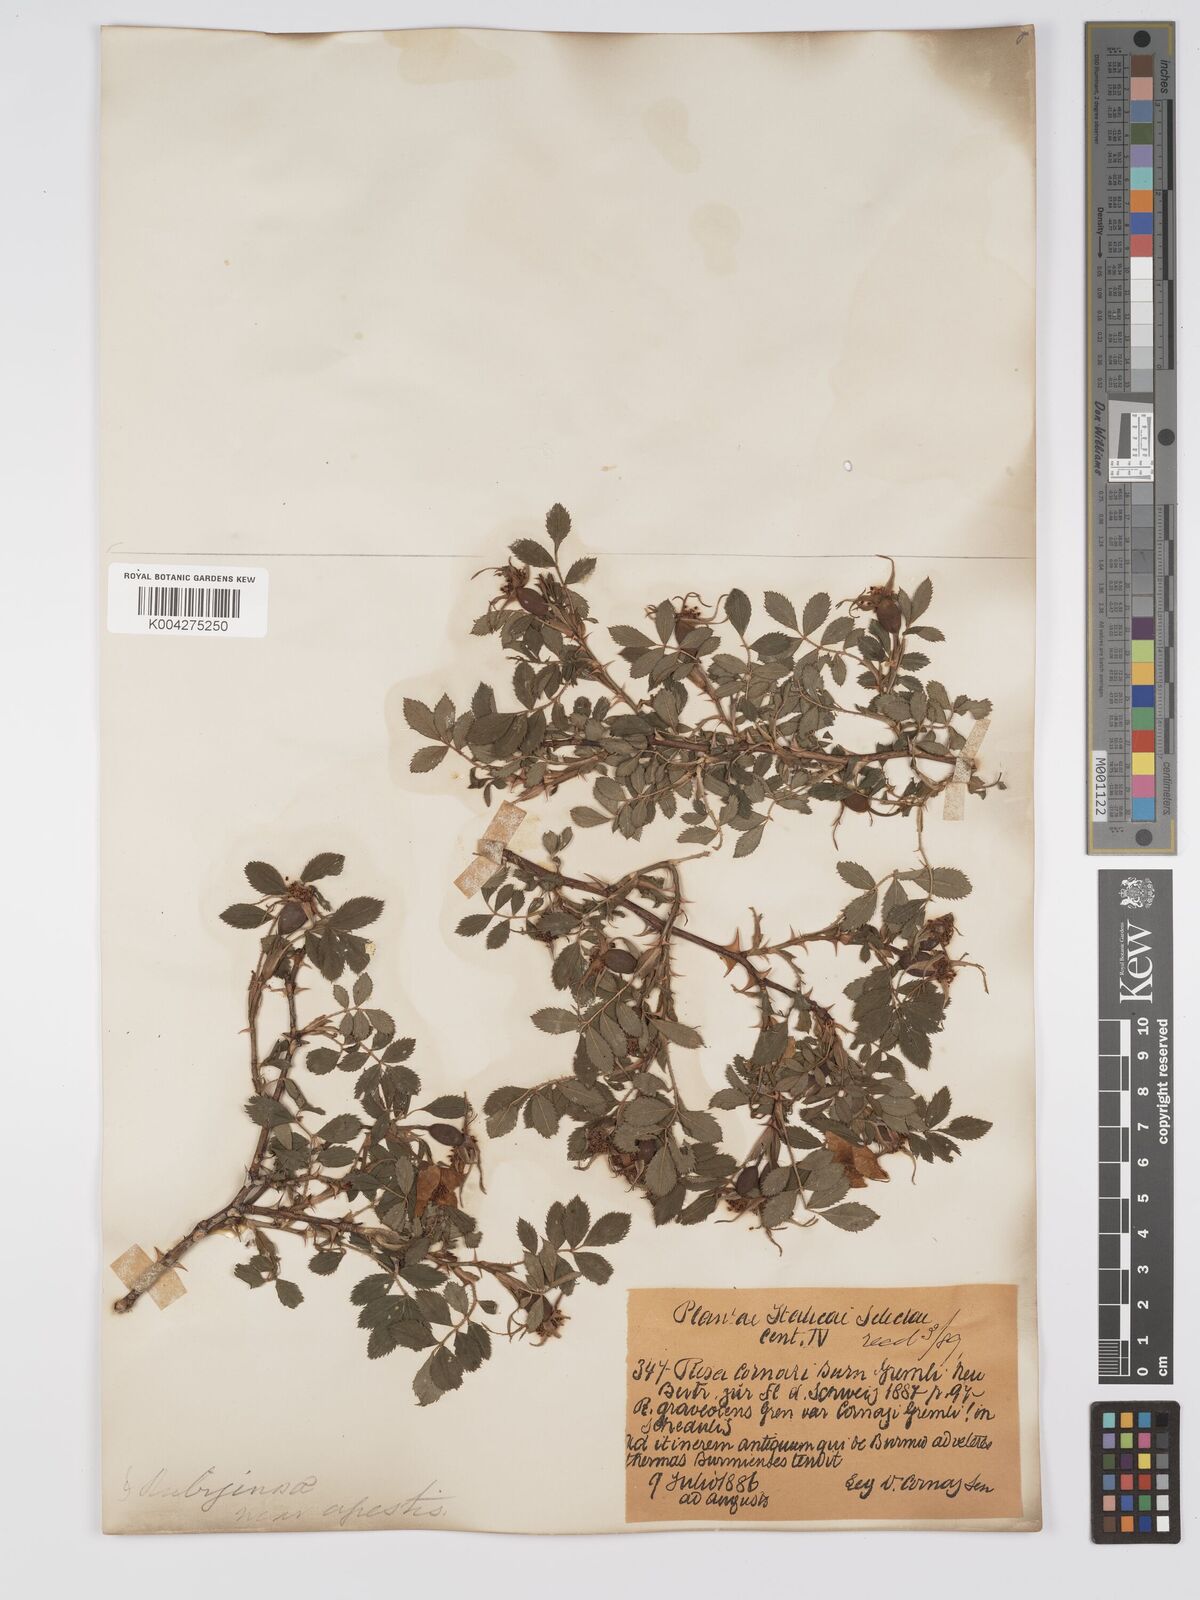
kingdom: Plantae
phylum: Tracheophyta
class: Magnoliopsida
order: Rosales
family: Rosaceae
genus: Rosa
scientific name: Rosa
